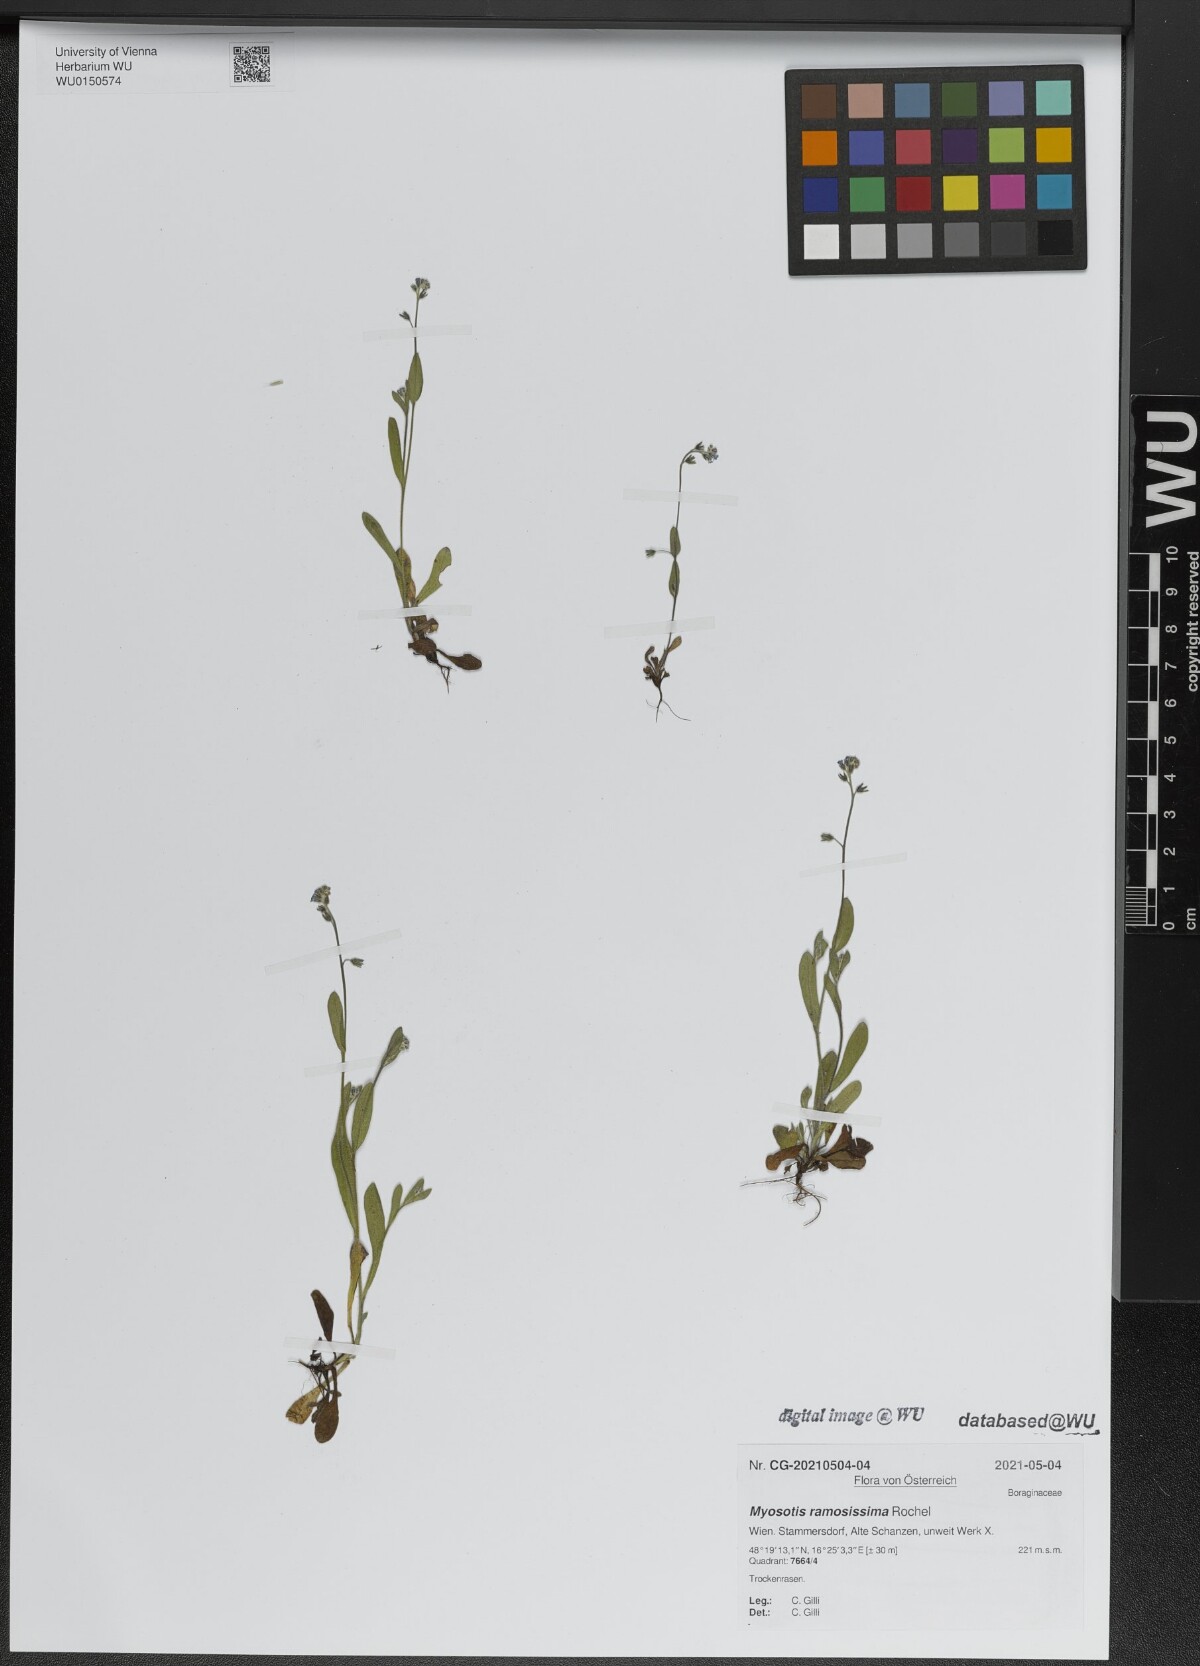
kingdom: Plantae
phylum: Tracheophyta
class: Magnoliopsida
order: Boraginales
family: Boraginaceae
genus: Myosotis
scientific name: Myosotis ramosissima
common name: Early forget-me-not
